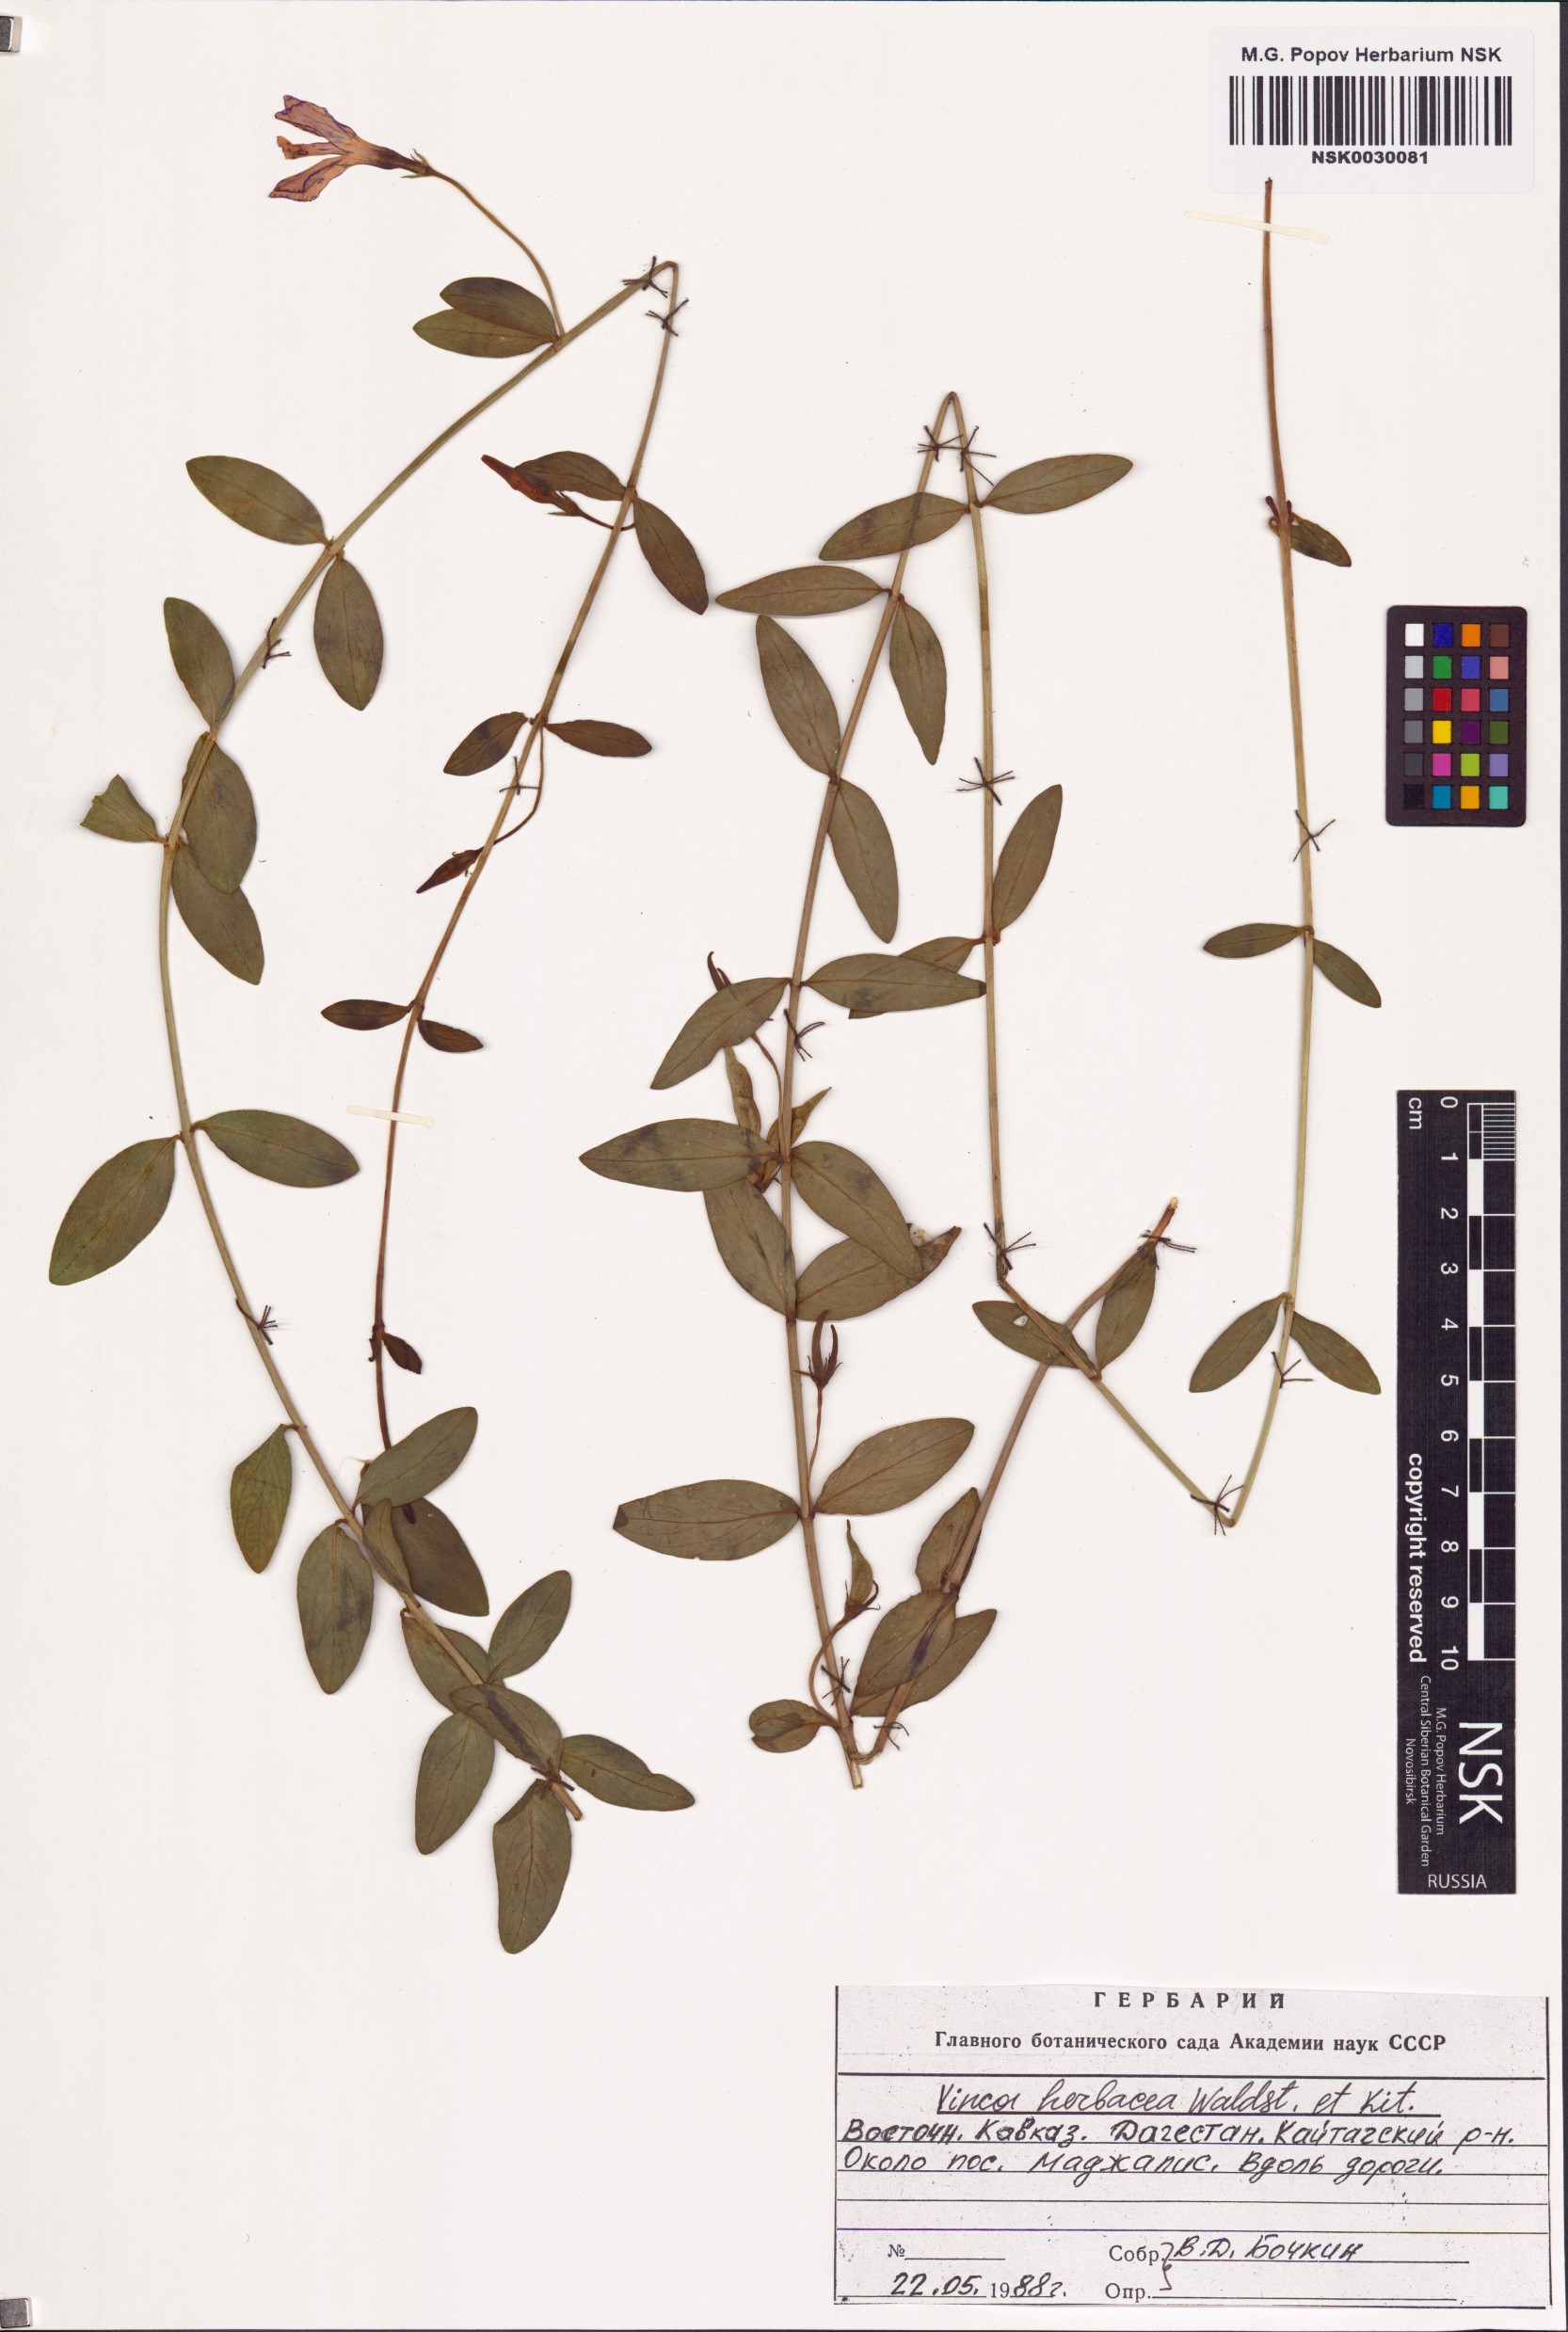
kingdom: Plantae
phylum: Tracheophyta
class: Magnoliopsida
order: Gentianales
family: Apocynaceae
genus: Vinca
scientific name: Vinca herbacea
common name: Herbaceous periwinkle
